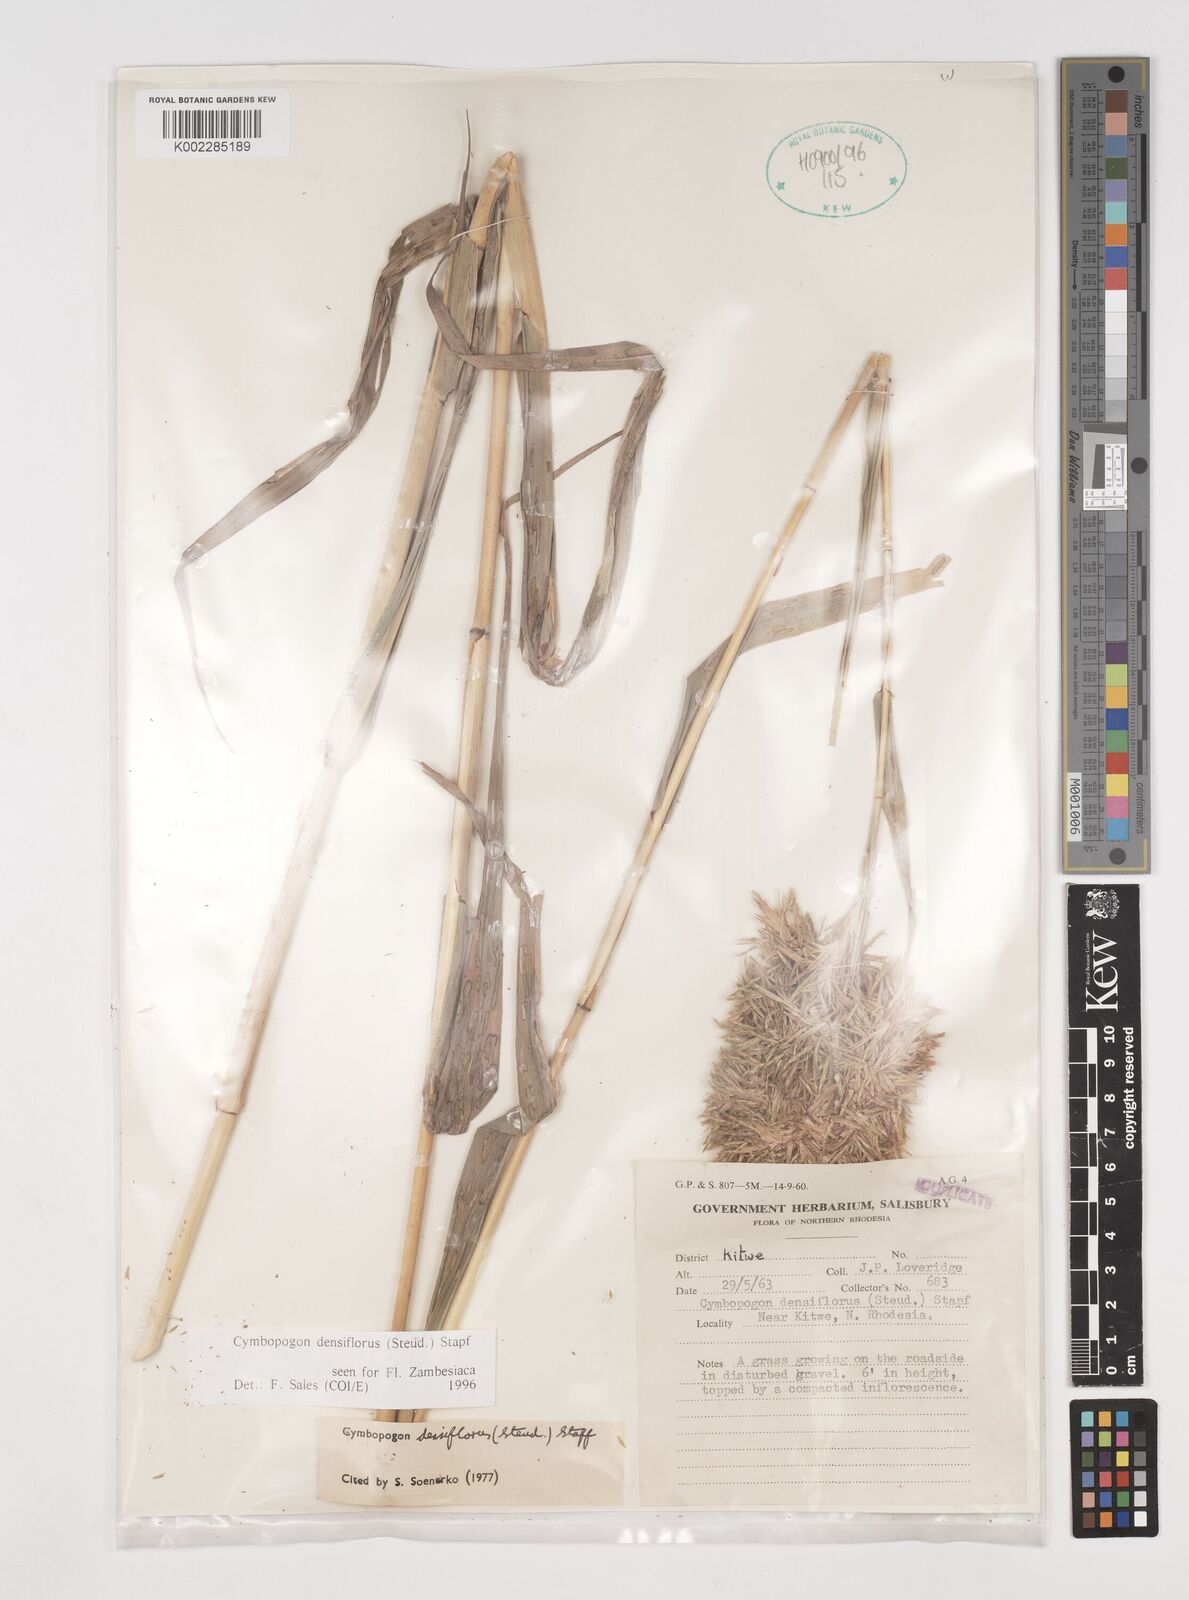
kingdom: Plantae
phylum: Tracheophyta
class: Liliopsida
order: Poales
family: Poaceae
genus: Cymbopogon
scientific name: Cymbopogon densiflorus
